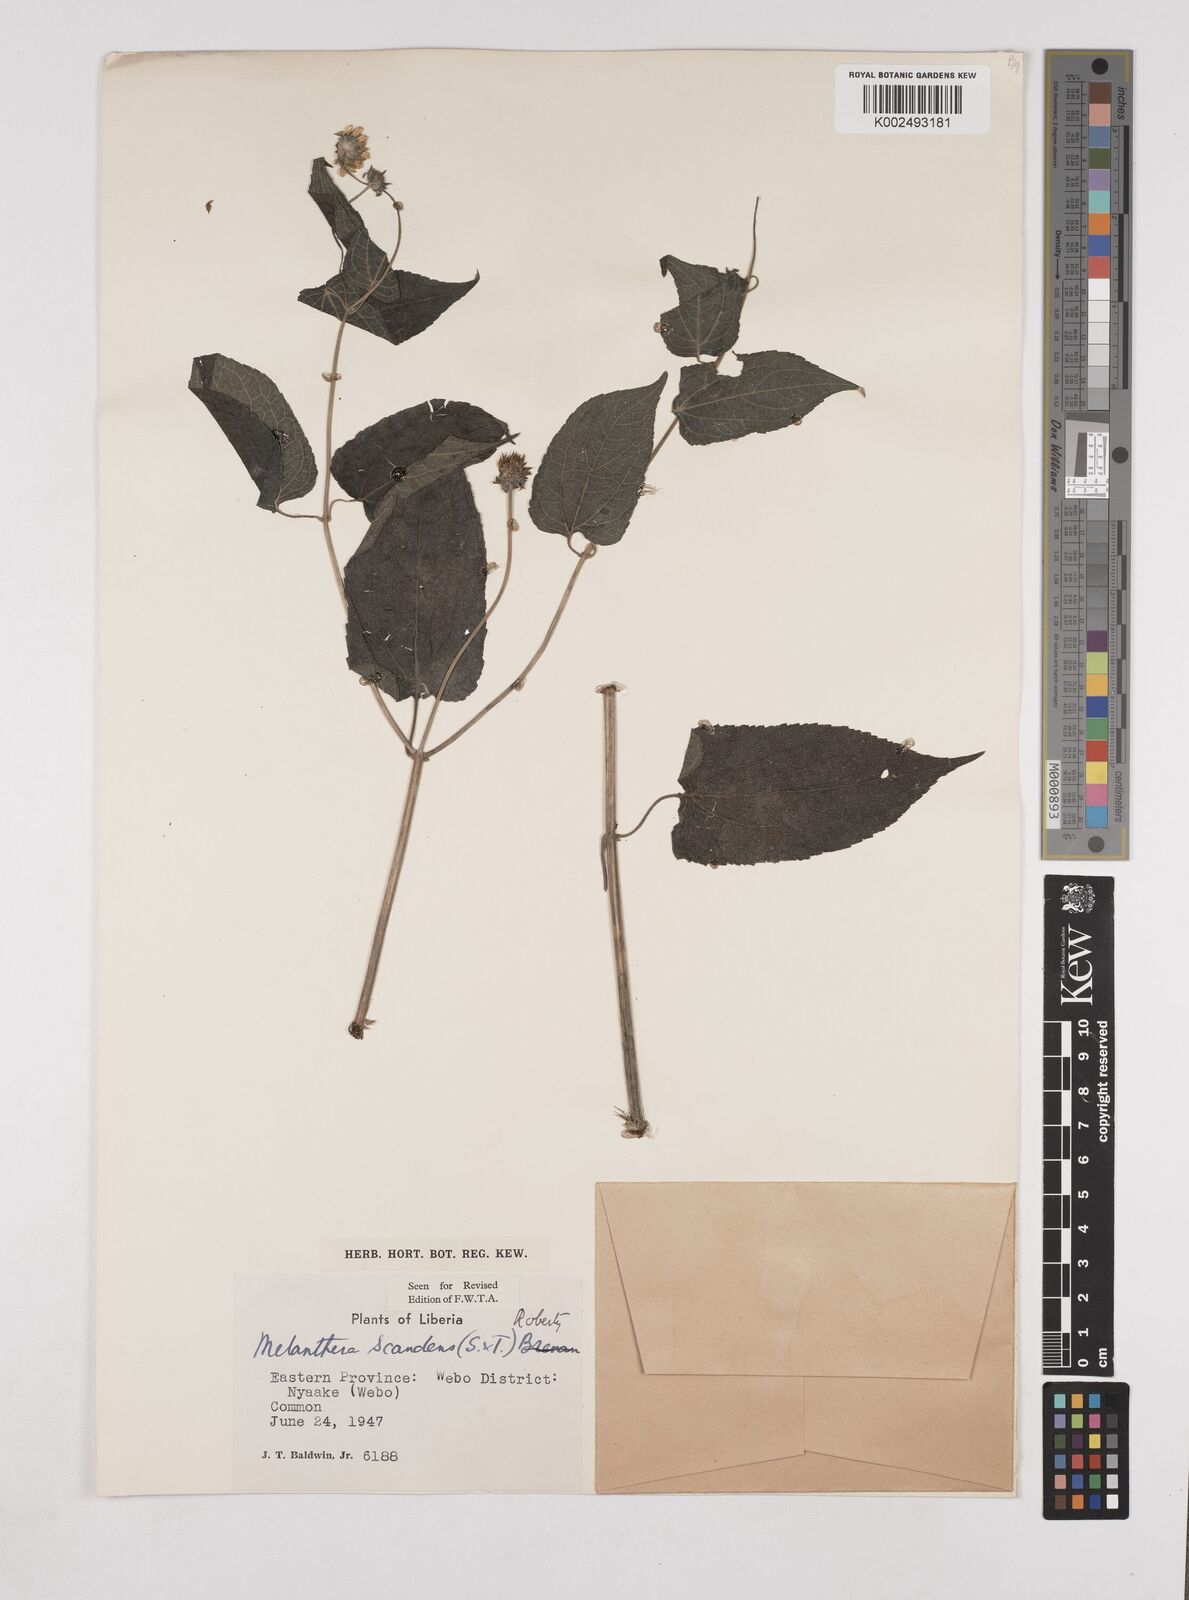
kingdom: Plantae
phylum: Tracheophyta
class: Magnoliopsida
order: Asterales
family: Asteraceae
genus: Lipotriche
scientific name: Lipotriche scandens
